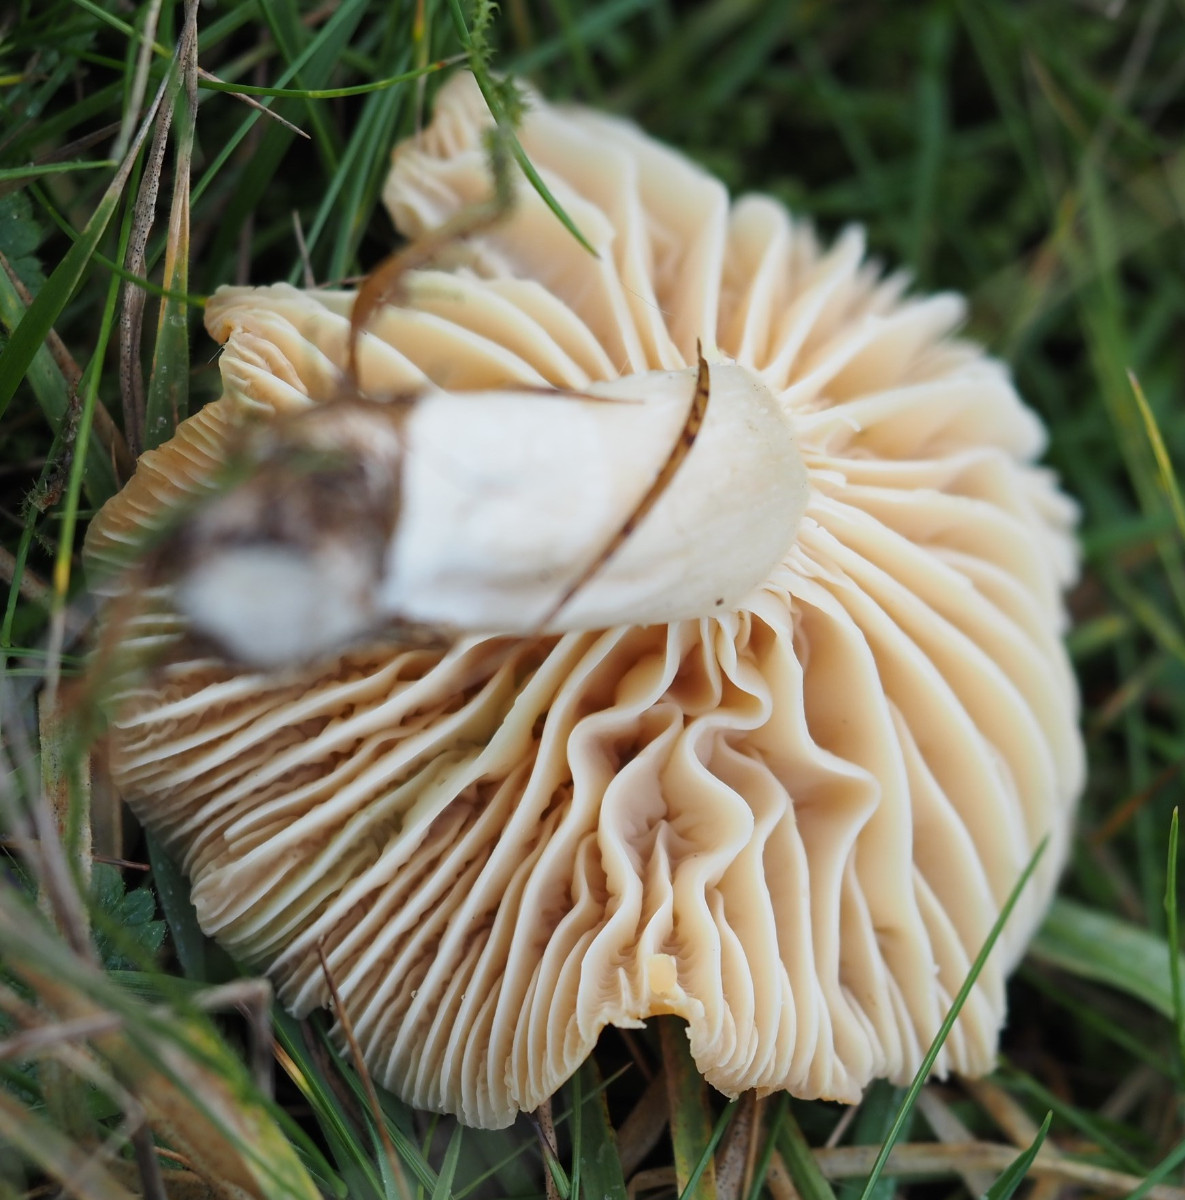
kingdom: Fungi
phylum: Basidiomycota
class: Agaricomycetes
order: Agaricales
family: Hygrophoraceae
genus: Cuphophyllus
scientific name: Cuphophyllus pratensis
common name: eng-vokshat
